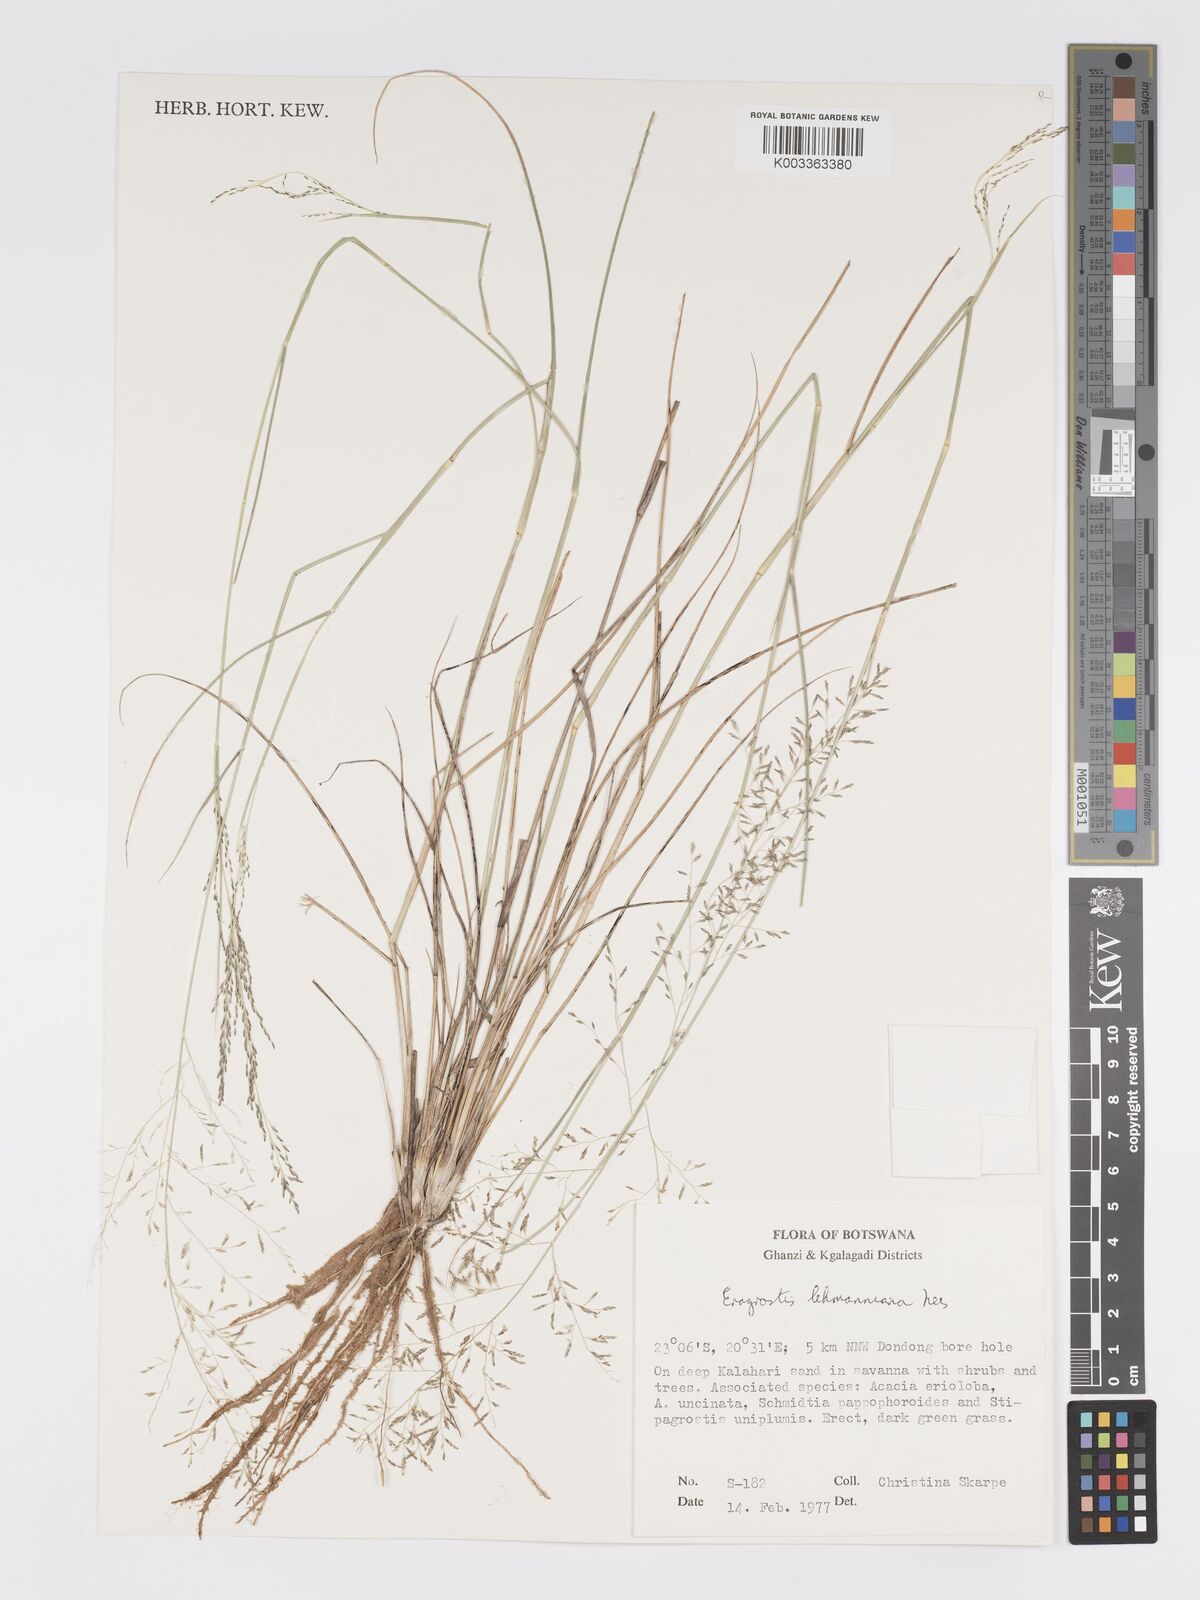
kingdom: Plantae
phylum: Tracheophyta
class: Liliopsida
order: Poales
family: Poaceae
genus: Eragrostis
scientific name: Eragrostis lehmanniana
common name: Lehmann lovegrass
